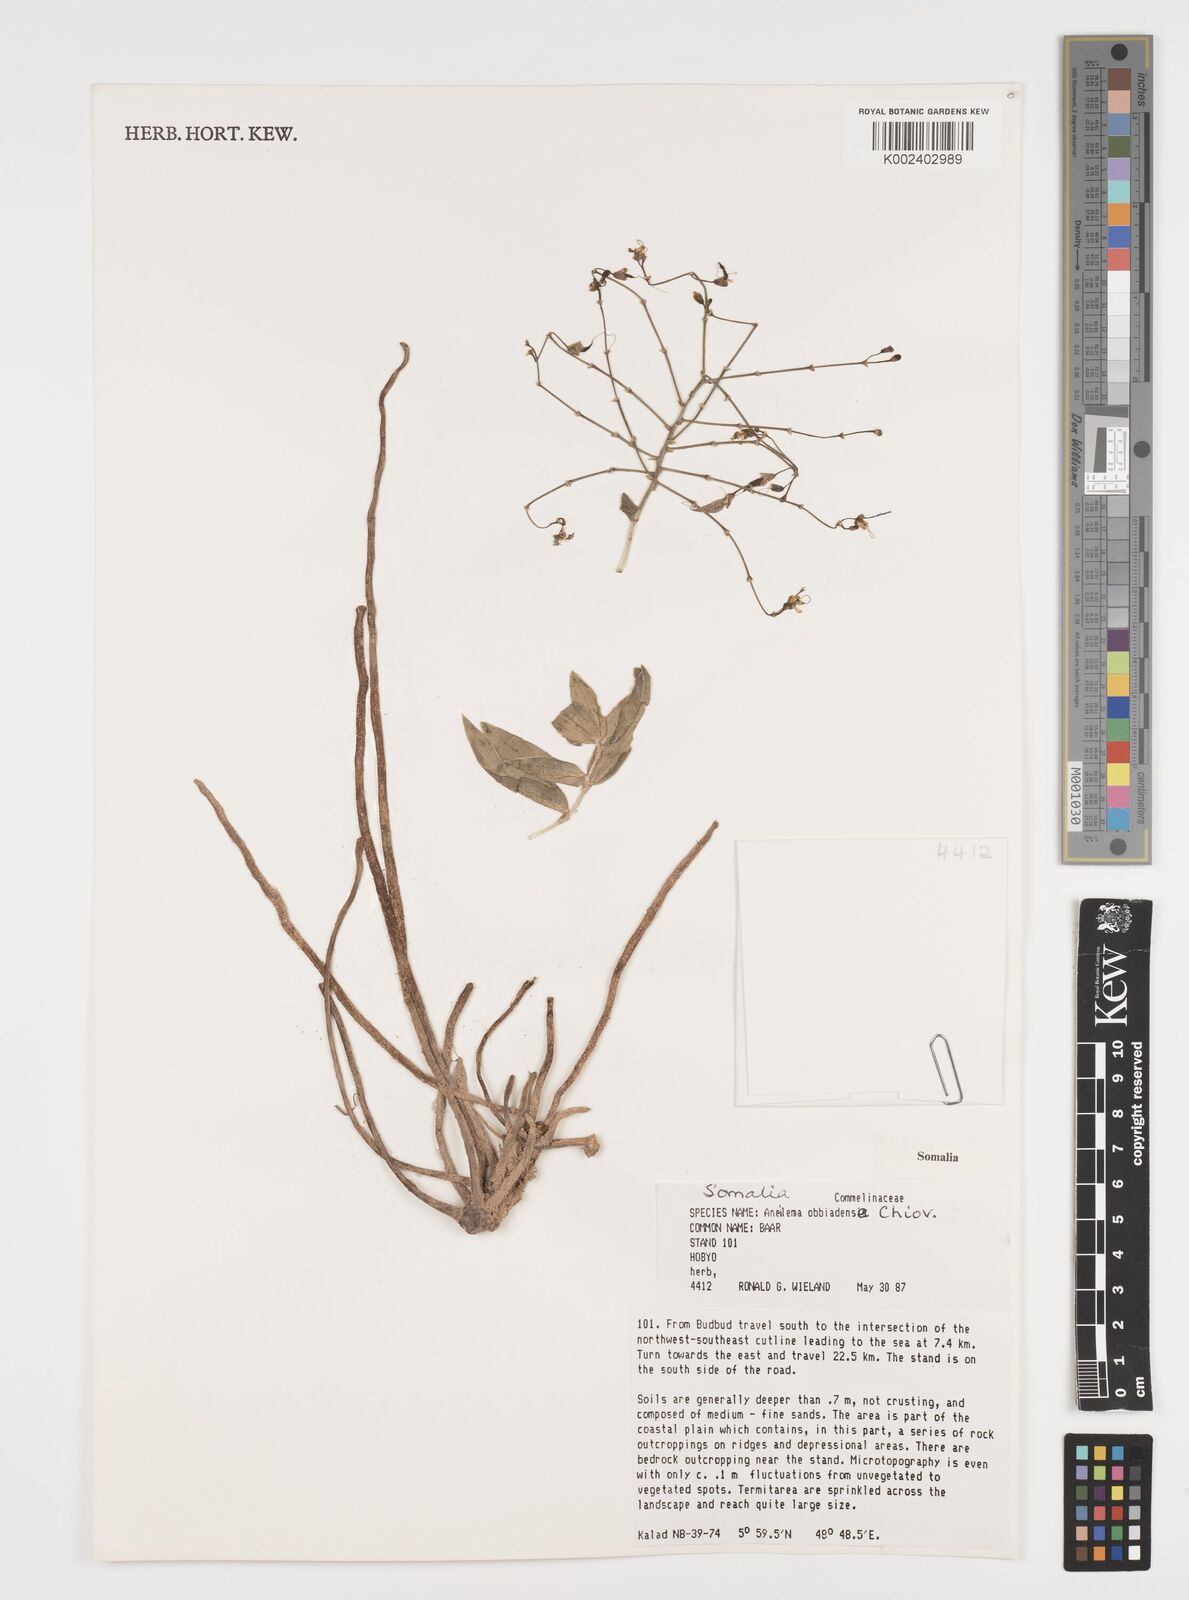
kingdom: Plantae
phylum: Tracheophyta
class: Liliopsida
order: Commelinales
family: Commelinaceae
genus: Aneilema
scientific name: Aneilema obbiadense
